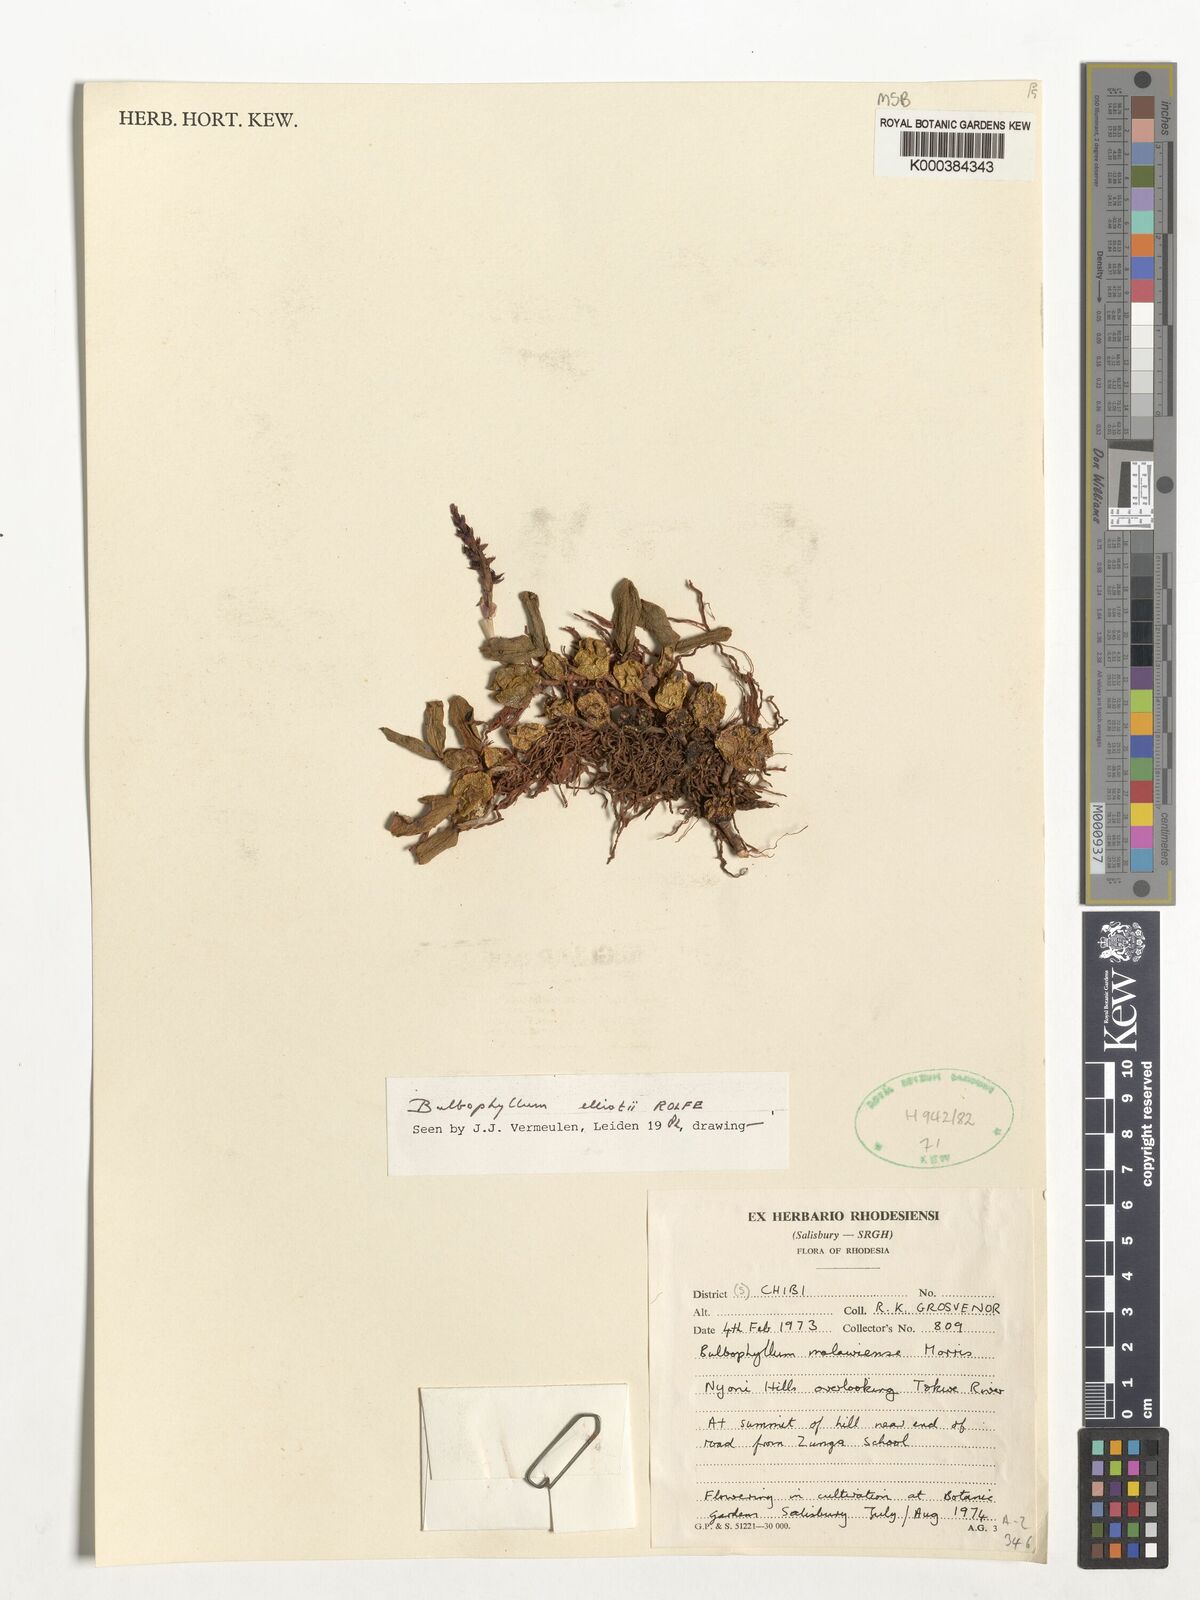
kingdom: Plantae
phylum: Tracheophyta
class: Liliopsida
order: Asparagales
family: Orchidaceae
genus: Bulbophyllum
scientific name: Bulbophyllum elliotii
